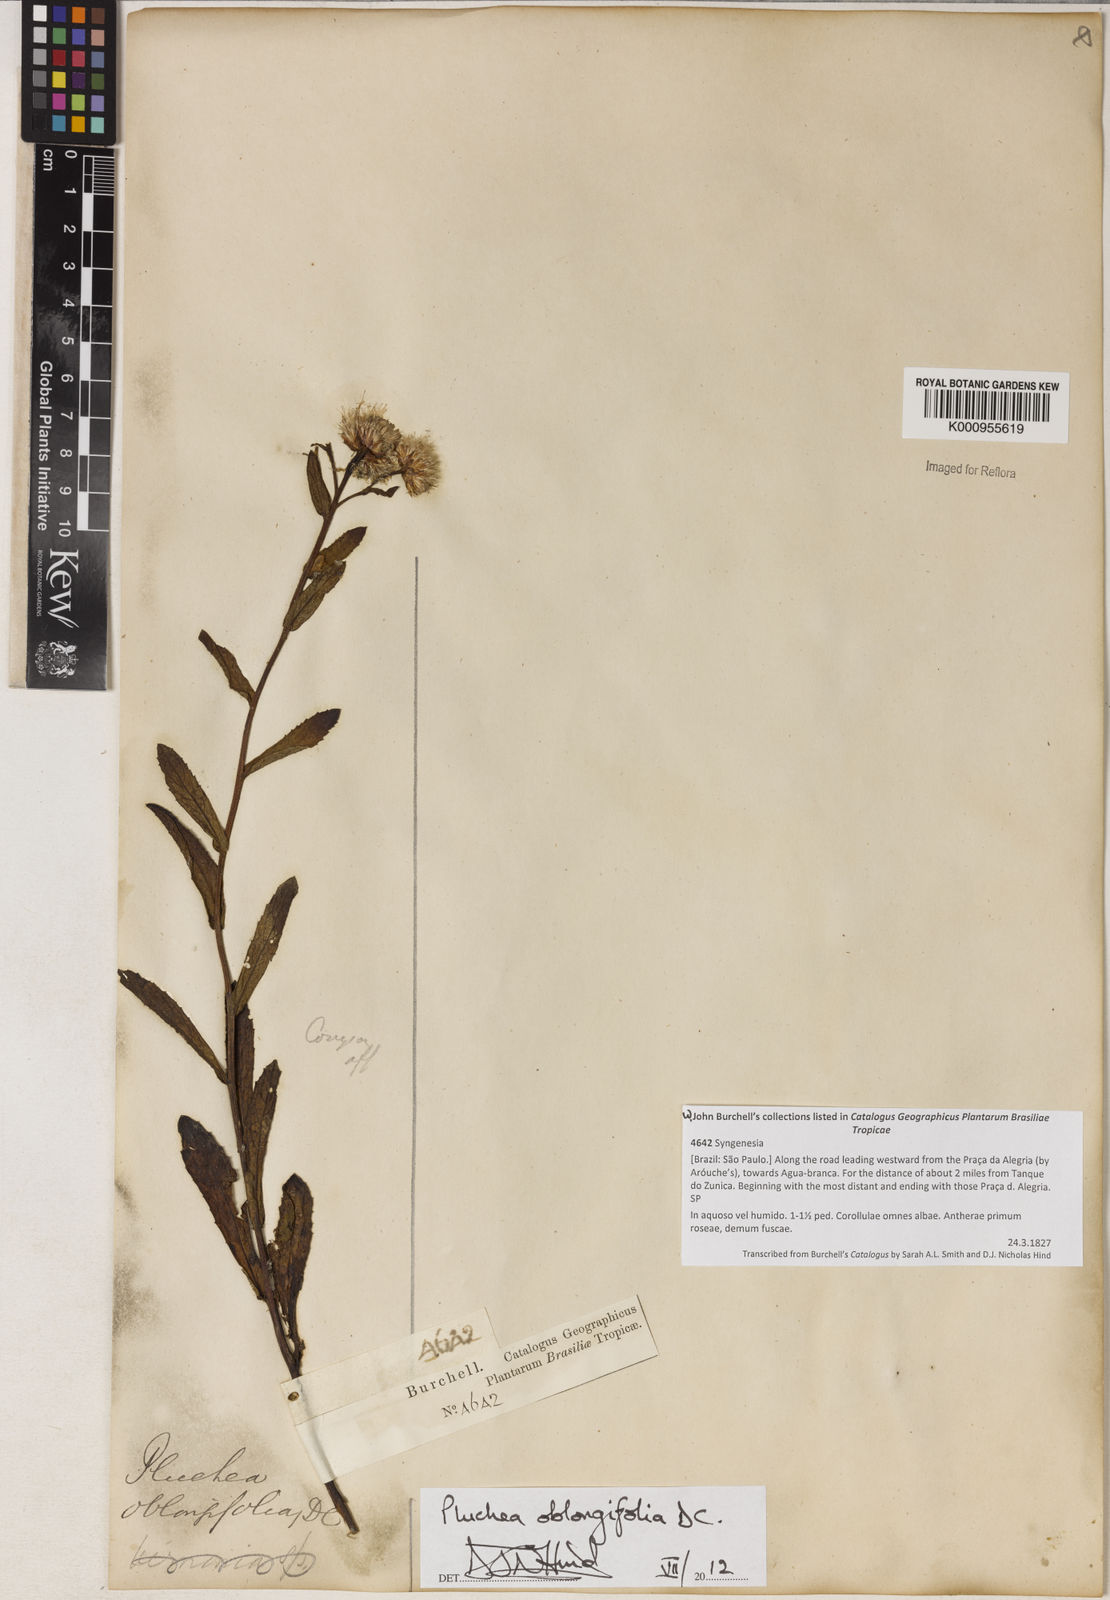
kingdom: Plantae
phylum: Tracheophyta
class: Magnoliopsida
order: Asterales
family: Asteraceae
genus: Pluchea
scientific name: Pluchea oblongifolia
